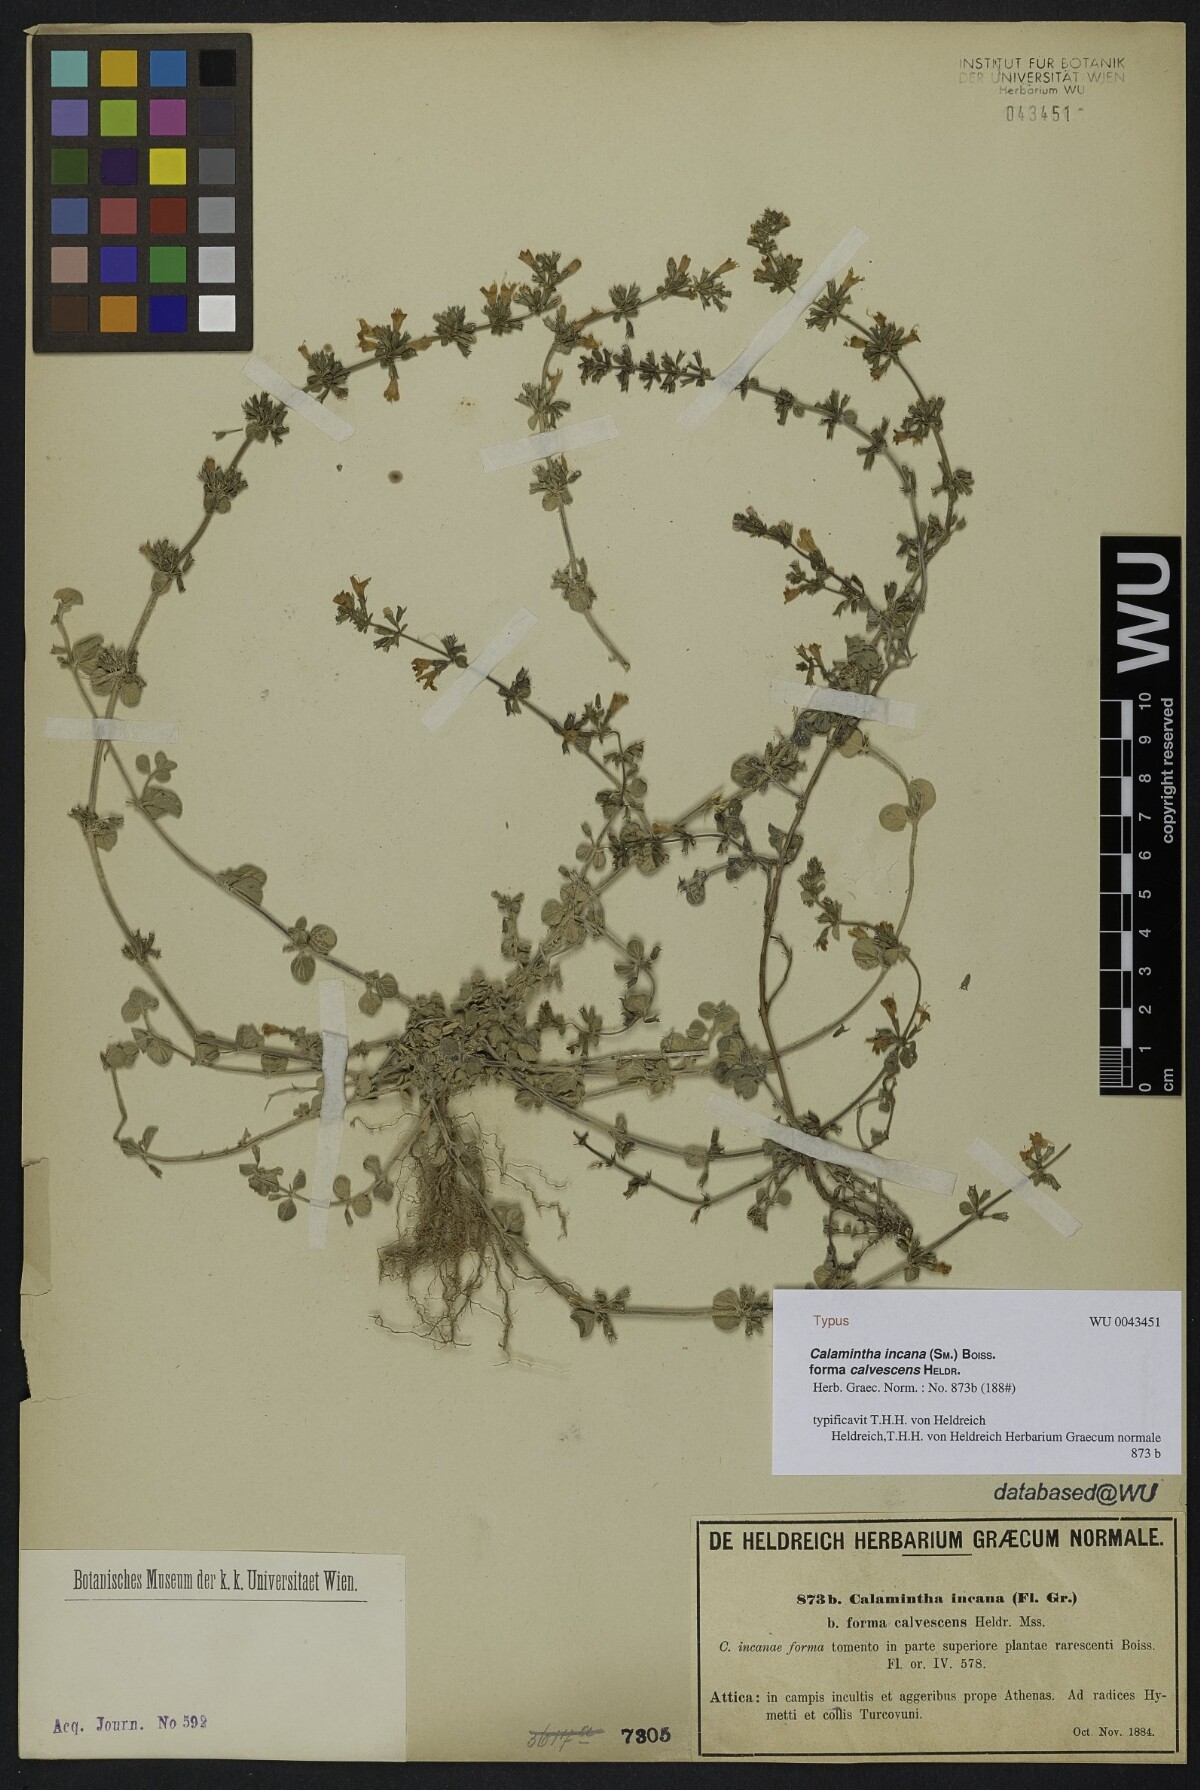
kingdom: Plantae
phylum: Tracheophyta
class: Magnoliopsida
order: Lamiales
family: Lamiaceae
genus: Clinopodium
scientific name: Clinopodium brevifolium
